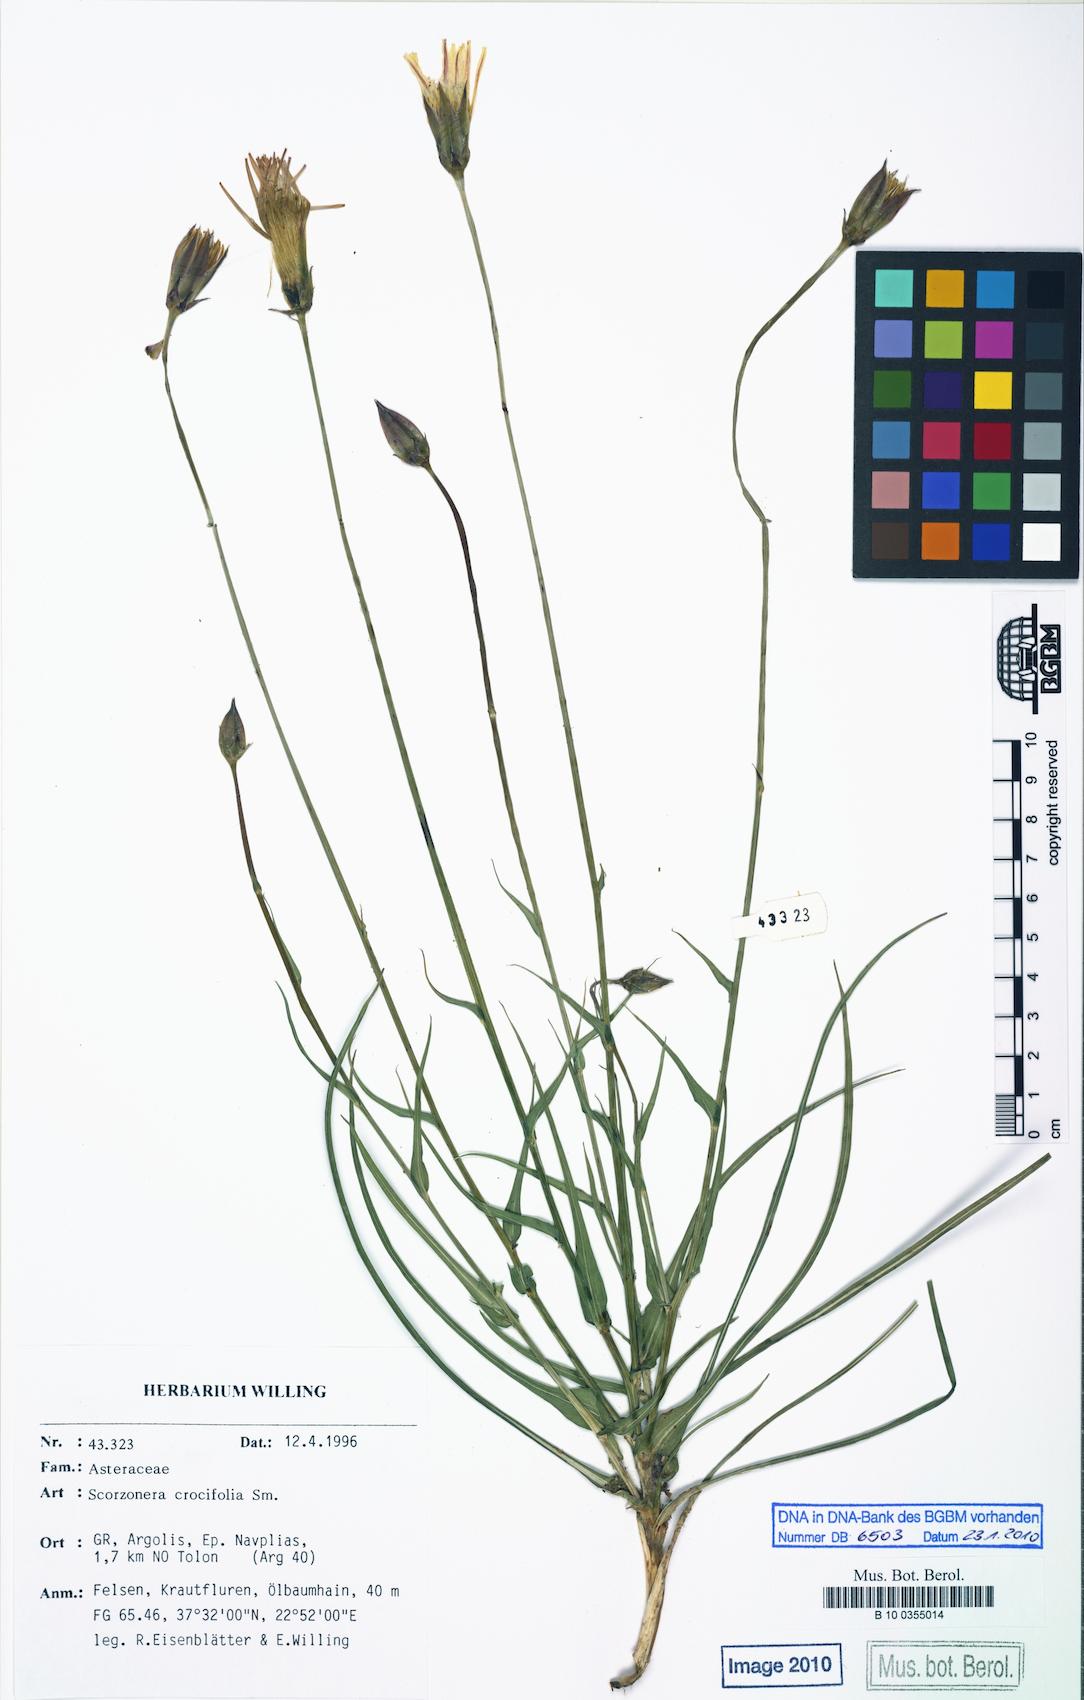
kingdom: Plantae
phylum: Tracheophyta
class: Magnoliopsida
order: Asterales
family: Asteraceae
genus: Pseudopodospermum
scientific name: Pseudopodospermum crocifolium
